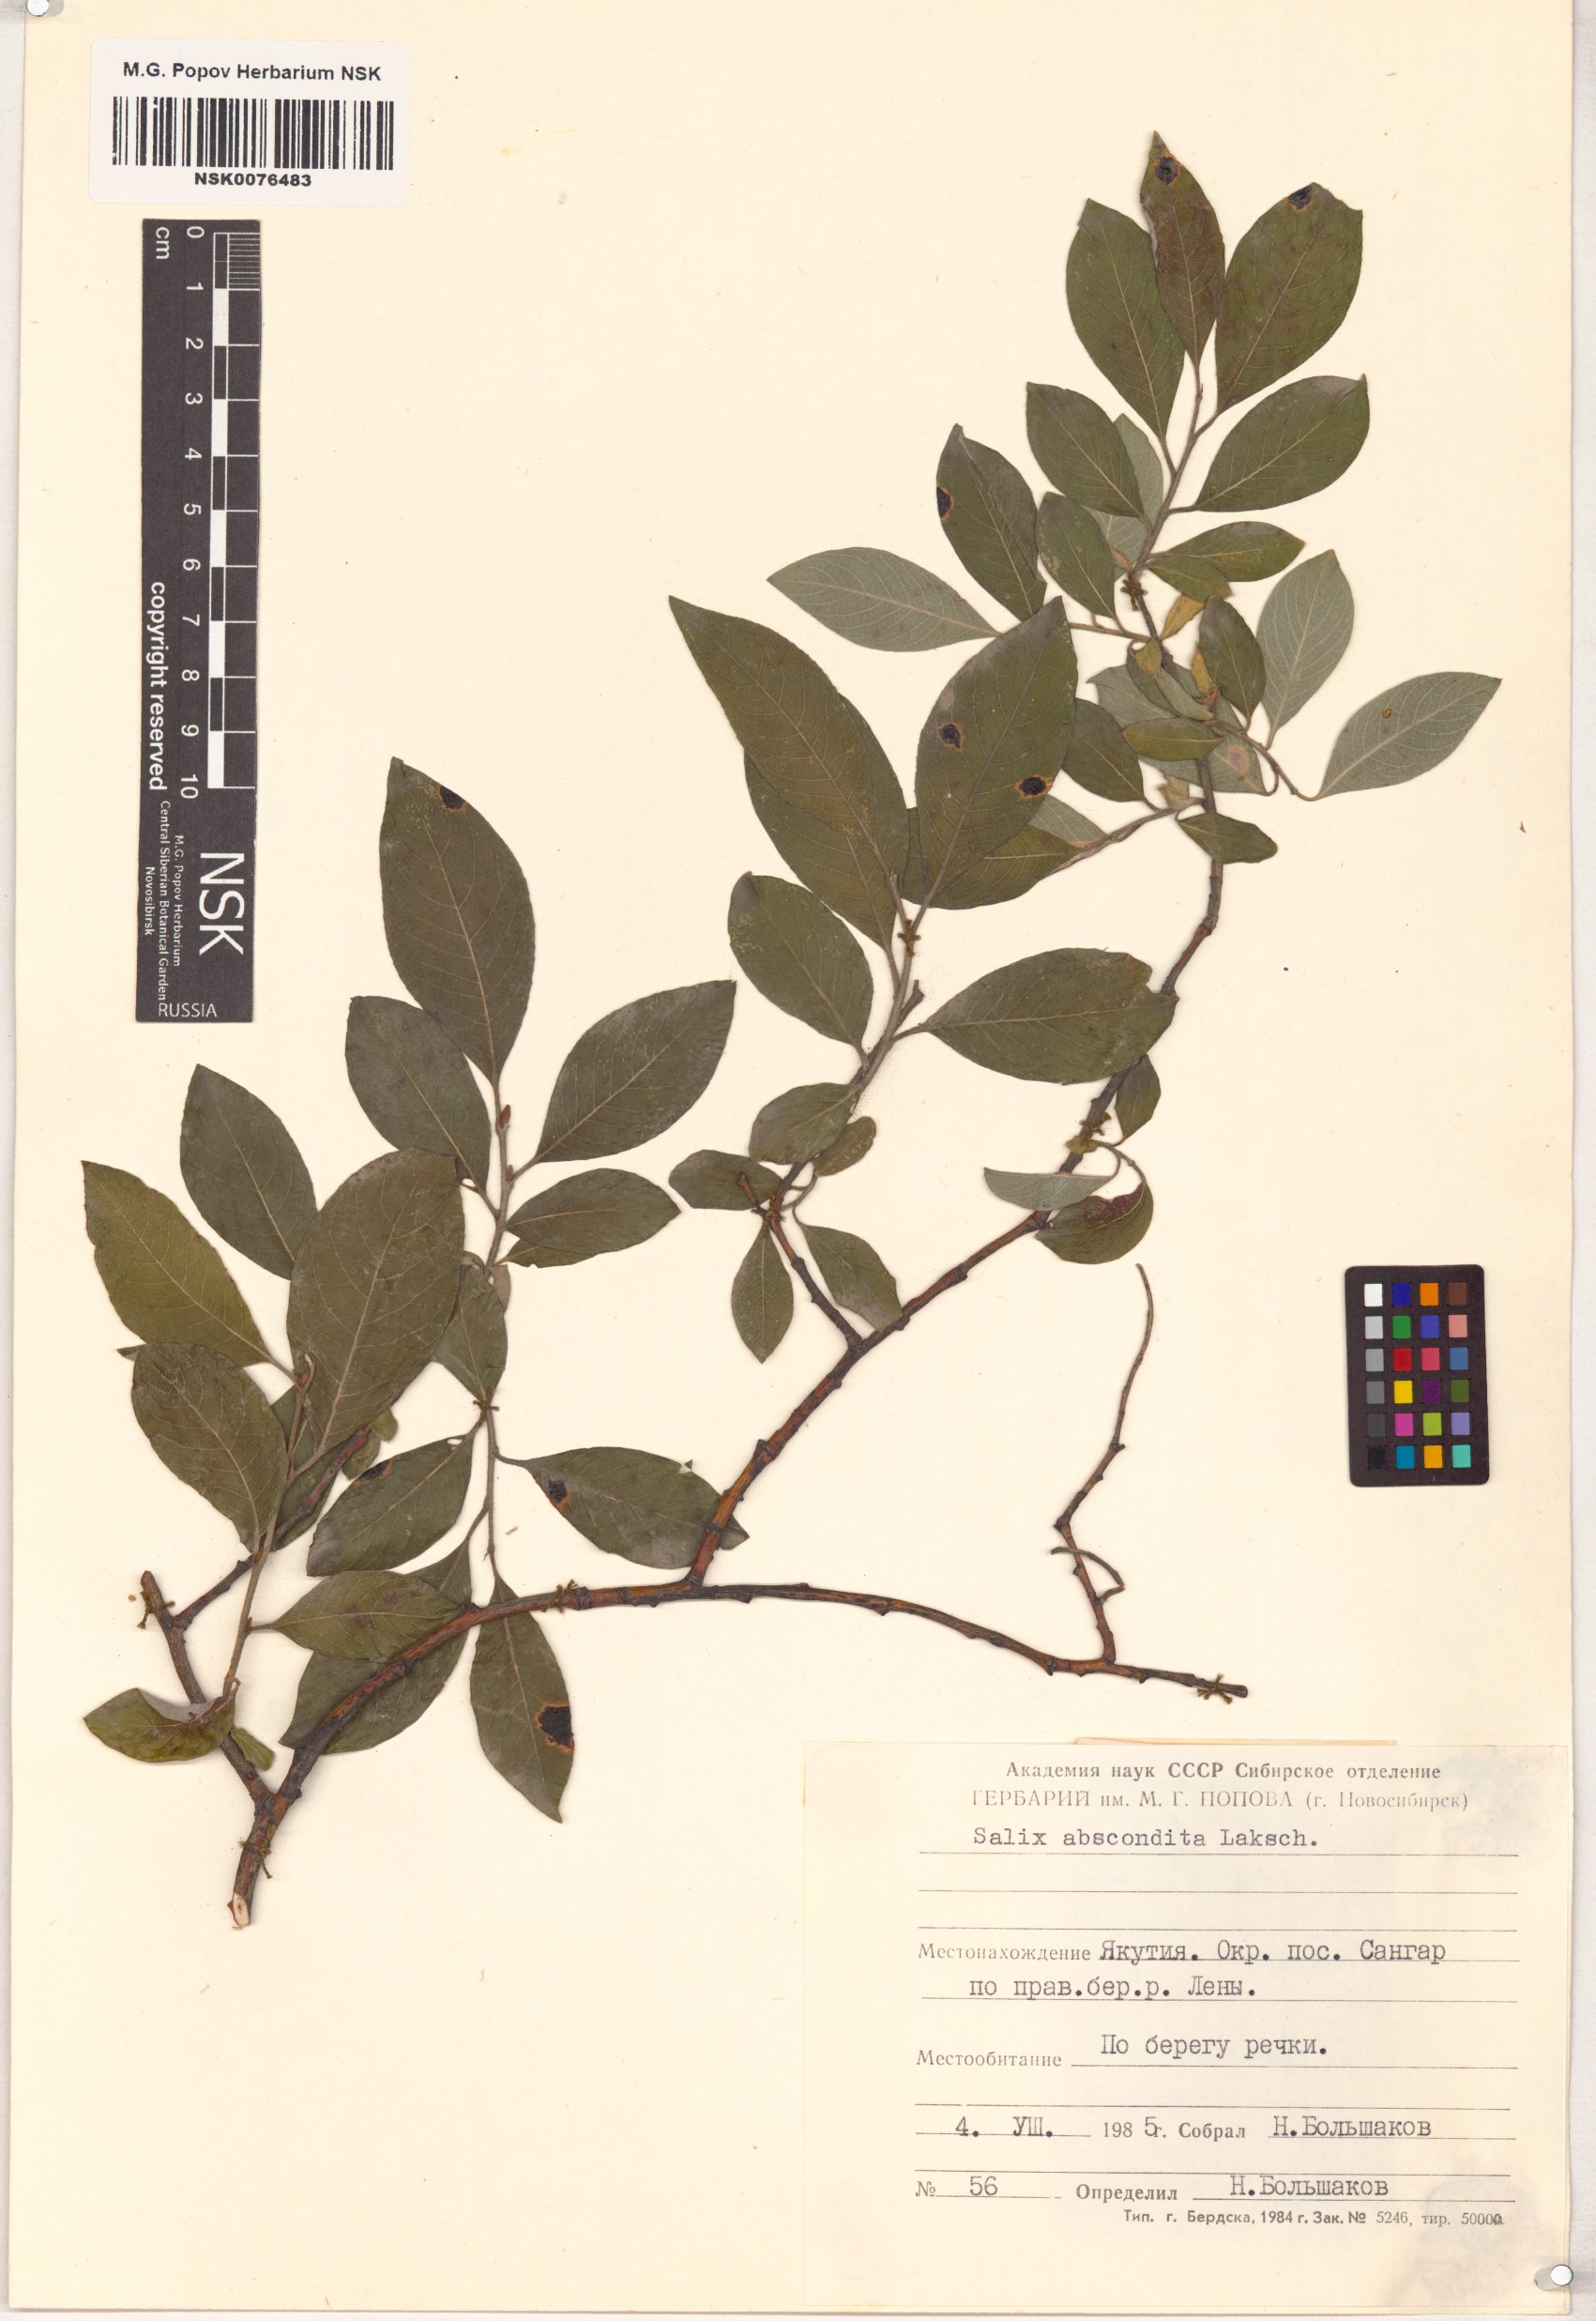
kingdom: Plantae
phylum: Tracheophyta
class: Magnoliopsida
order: Malpighiales
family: Salicaceae
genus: Salix
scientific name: Salix abscondita
